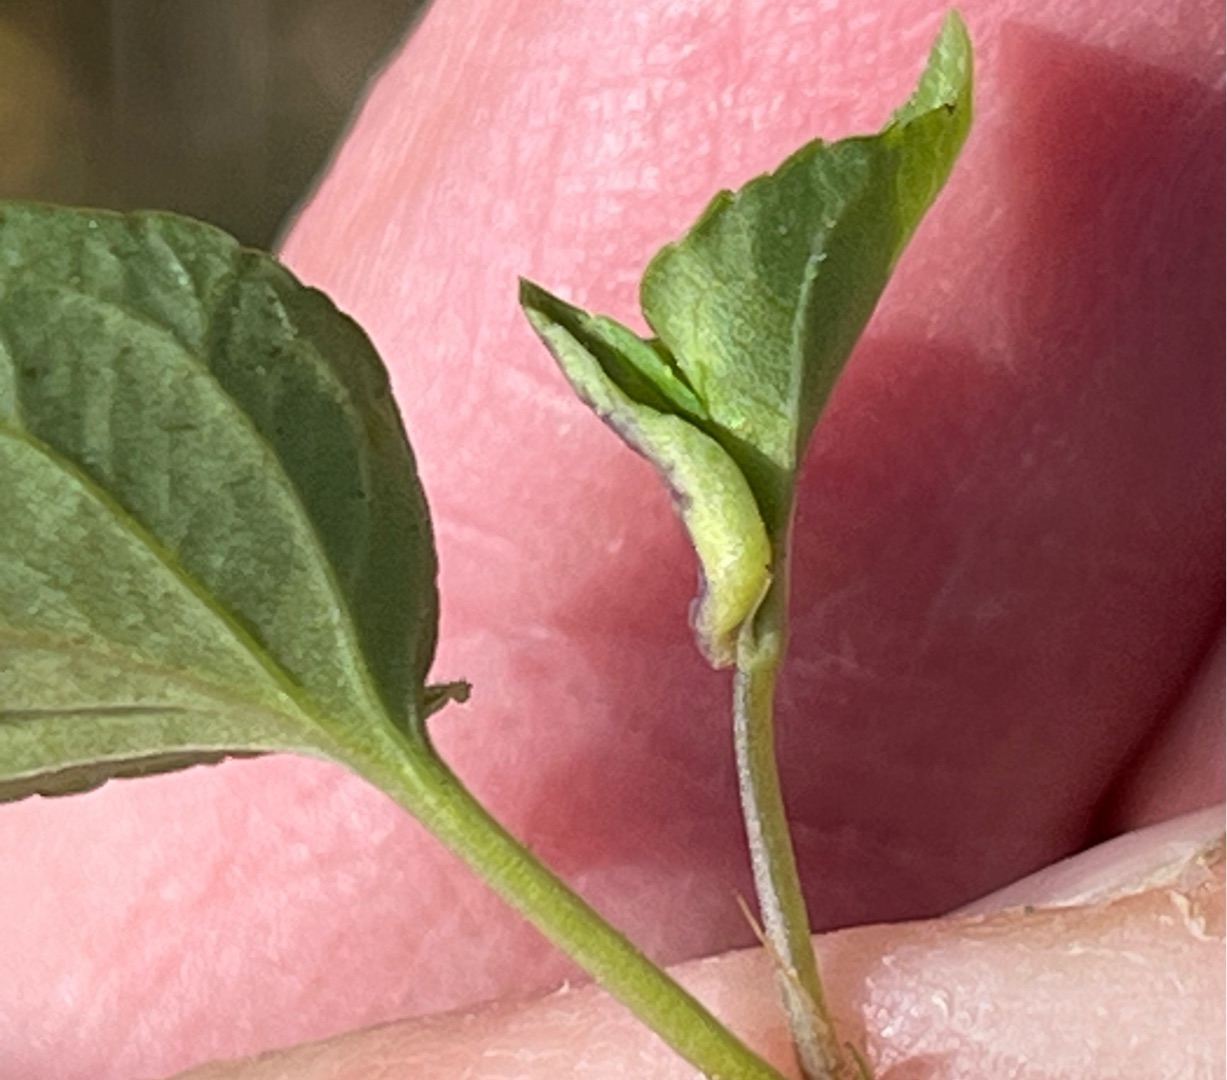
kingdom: Animalia
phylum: Arthropoda
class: Insecta
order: Diptera
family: Cecidomyiidae
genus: Dasineura
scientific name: Dasineura affinis
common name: Violgalmyg
